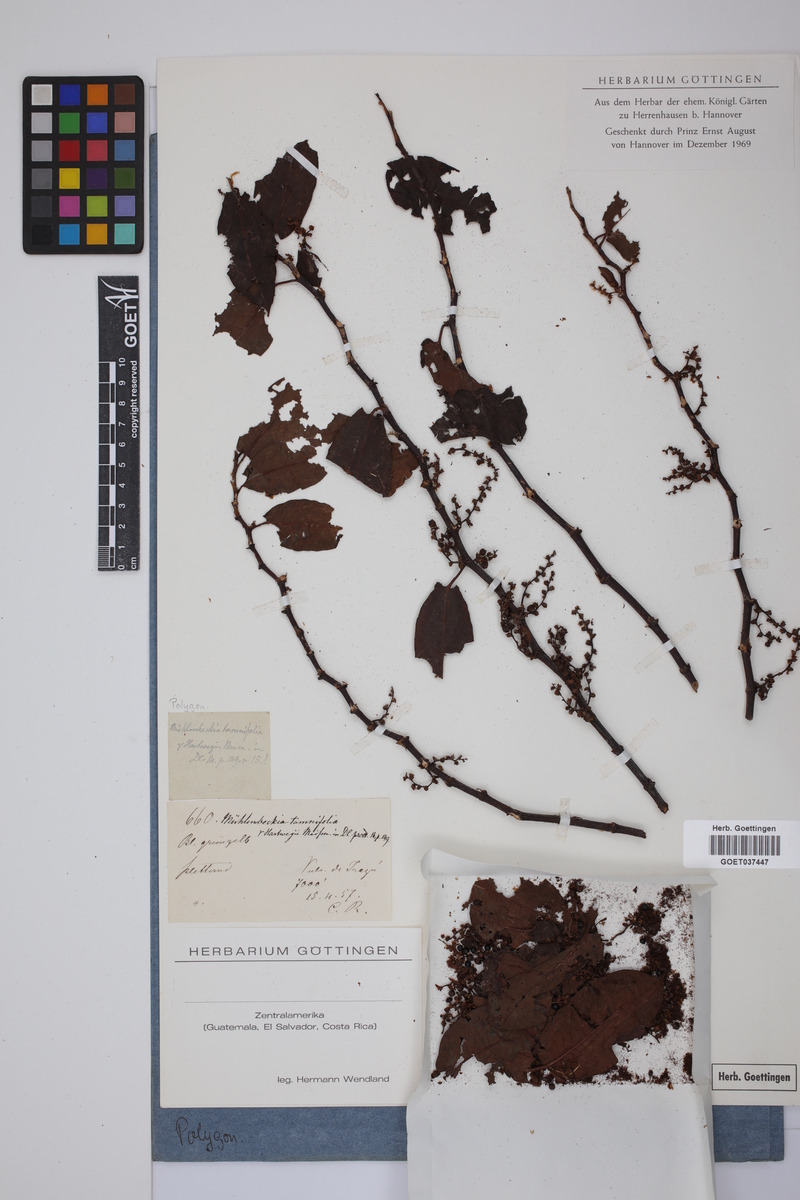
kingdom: Plantae
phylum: Tracheophyta
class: Magnoliopsida
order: Caryophyllales
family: Polygonaceae
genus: Muehlenbeckia
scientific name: Muehlenbeckia tamnifolia
